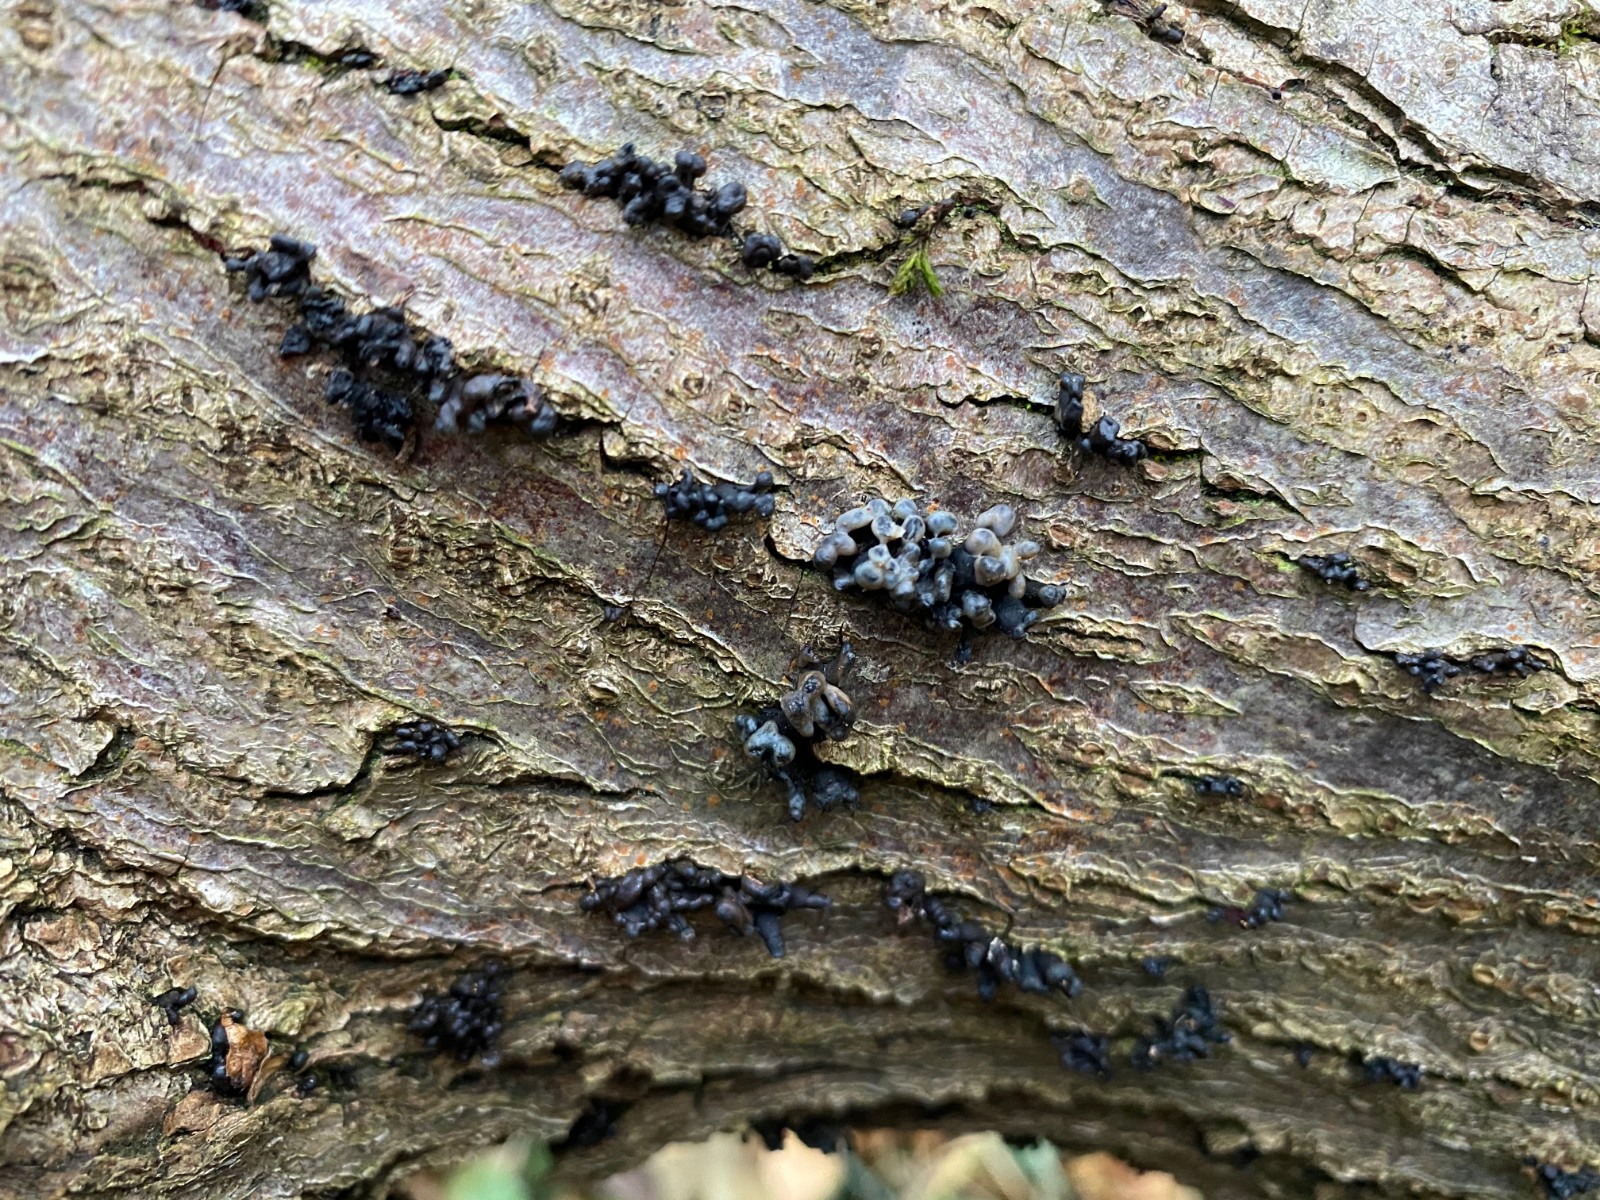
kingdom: Fungi
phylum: Ascomycota
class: Leotiomycetes
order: Helotiales
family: Bulgariaceae
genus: Holwaya
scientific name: Holwaya mucida
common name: lindeskive
